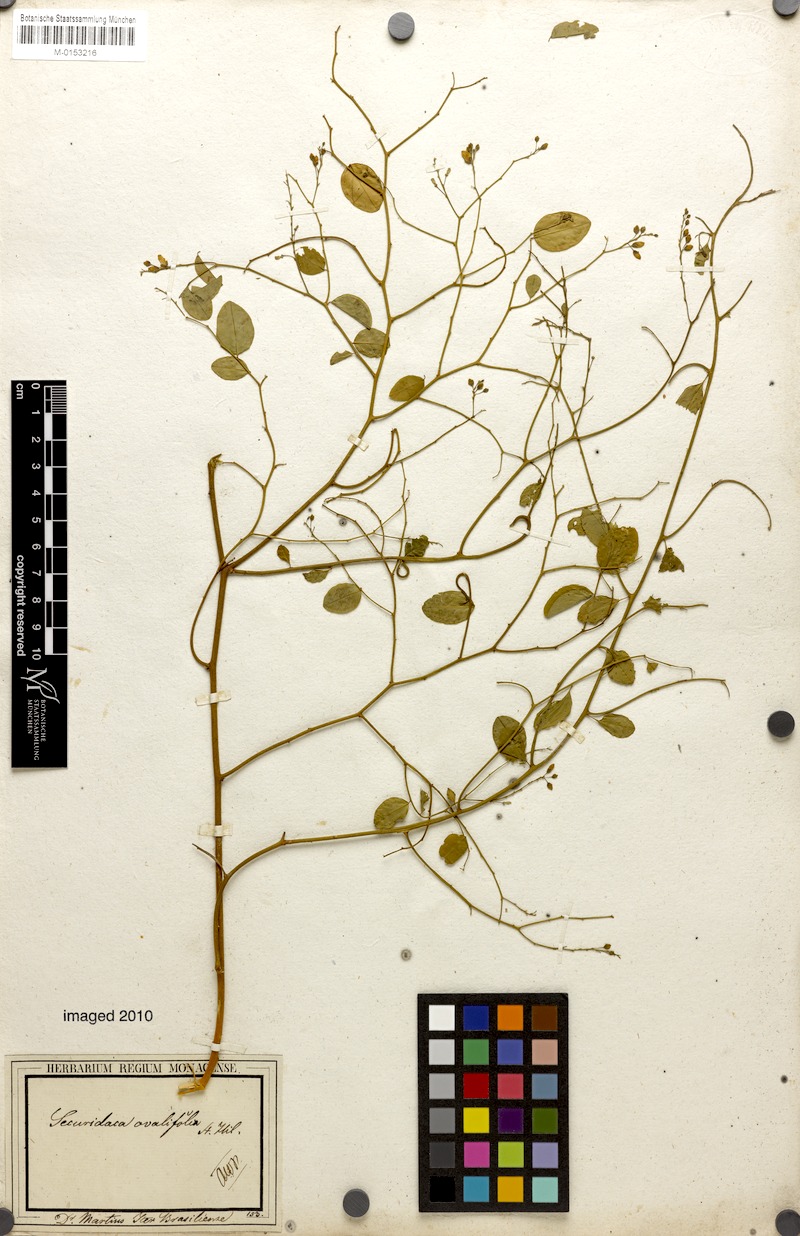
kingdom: Plantae
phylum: Tracheophyta
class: Magnoliopsida
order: Fabales
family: Polygalaceae
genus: Securidaca
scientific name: Securidaca ovalifolia
